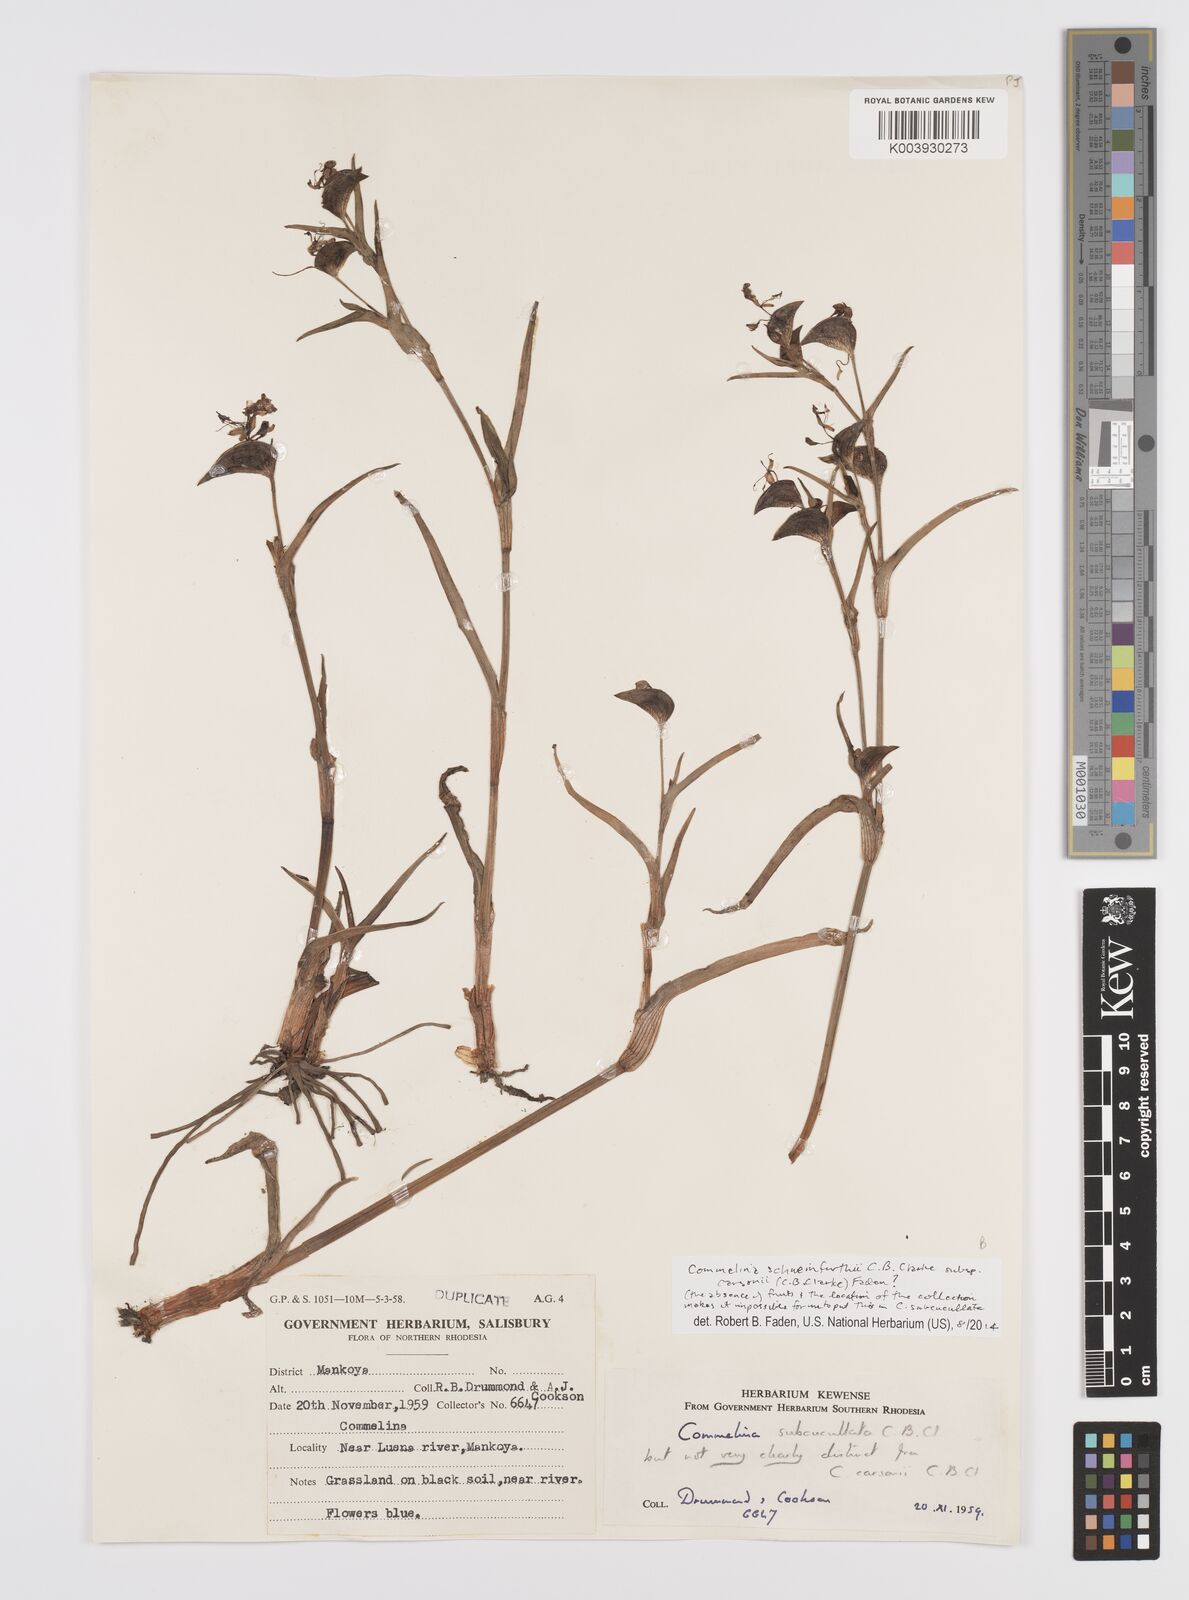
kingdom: Plantae
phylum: Tracheophyta
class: Liliopsida
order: Commelinales
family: Commelinaceae
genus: Commelina
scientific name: Commelina schweinfurthii
